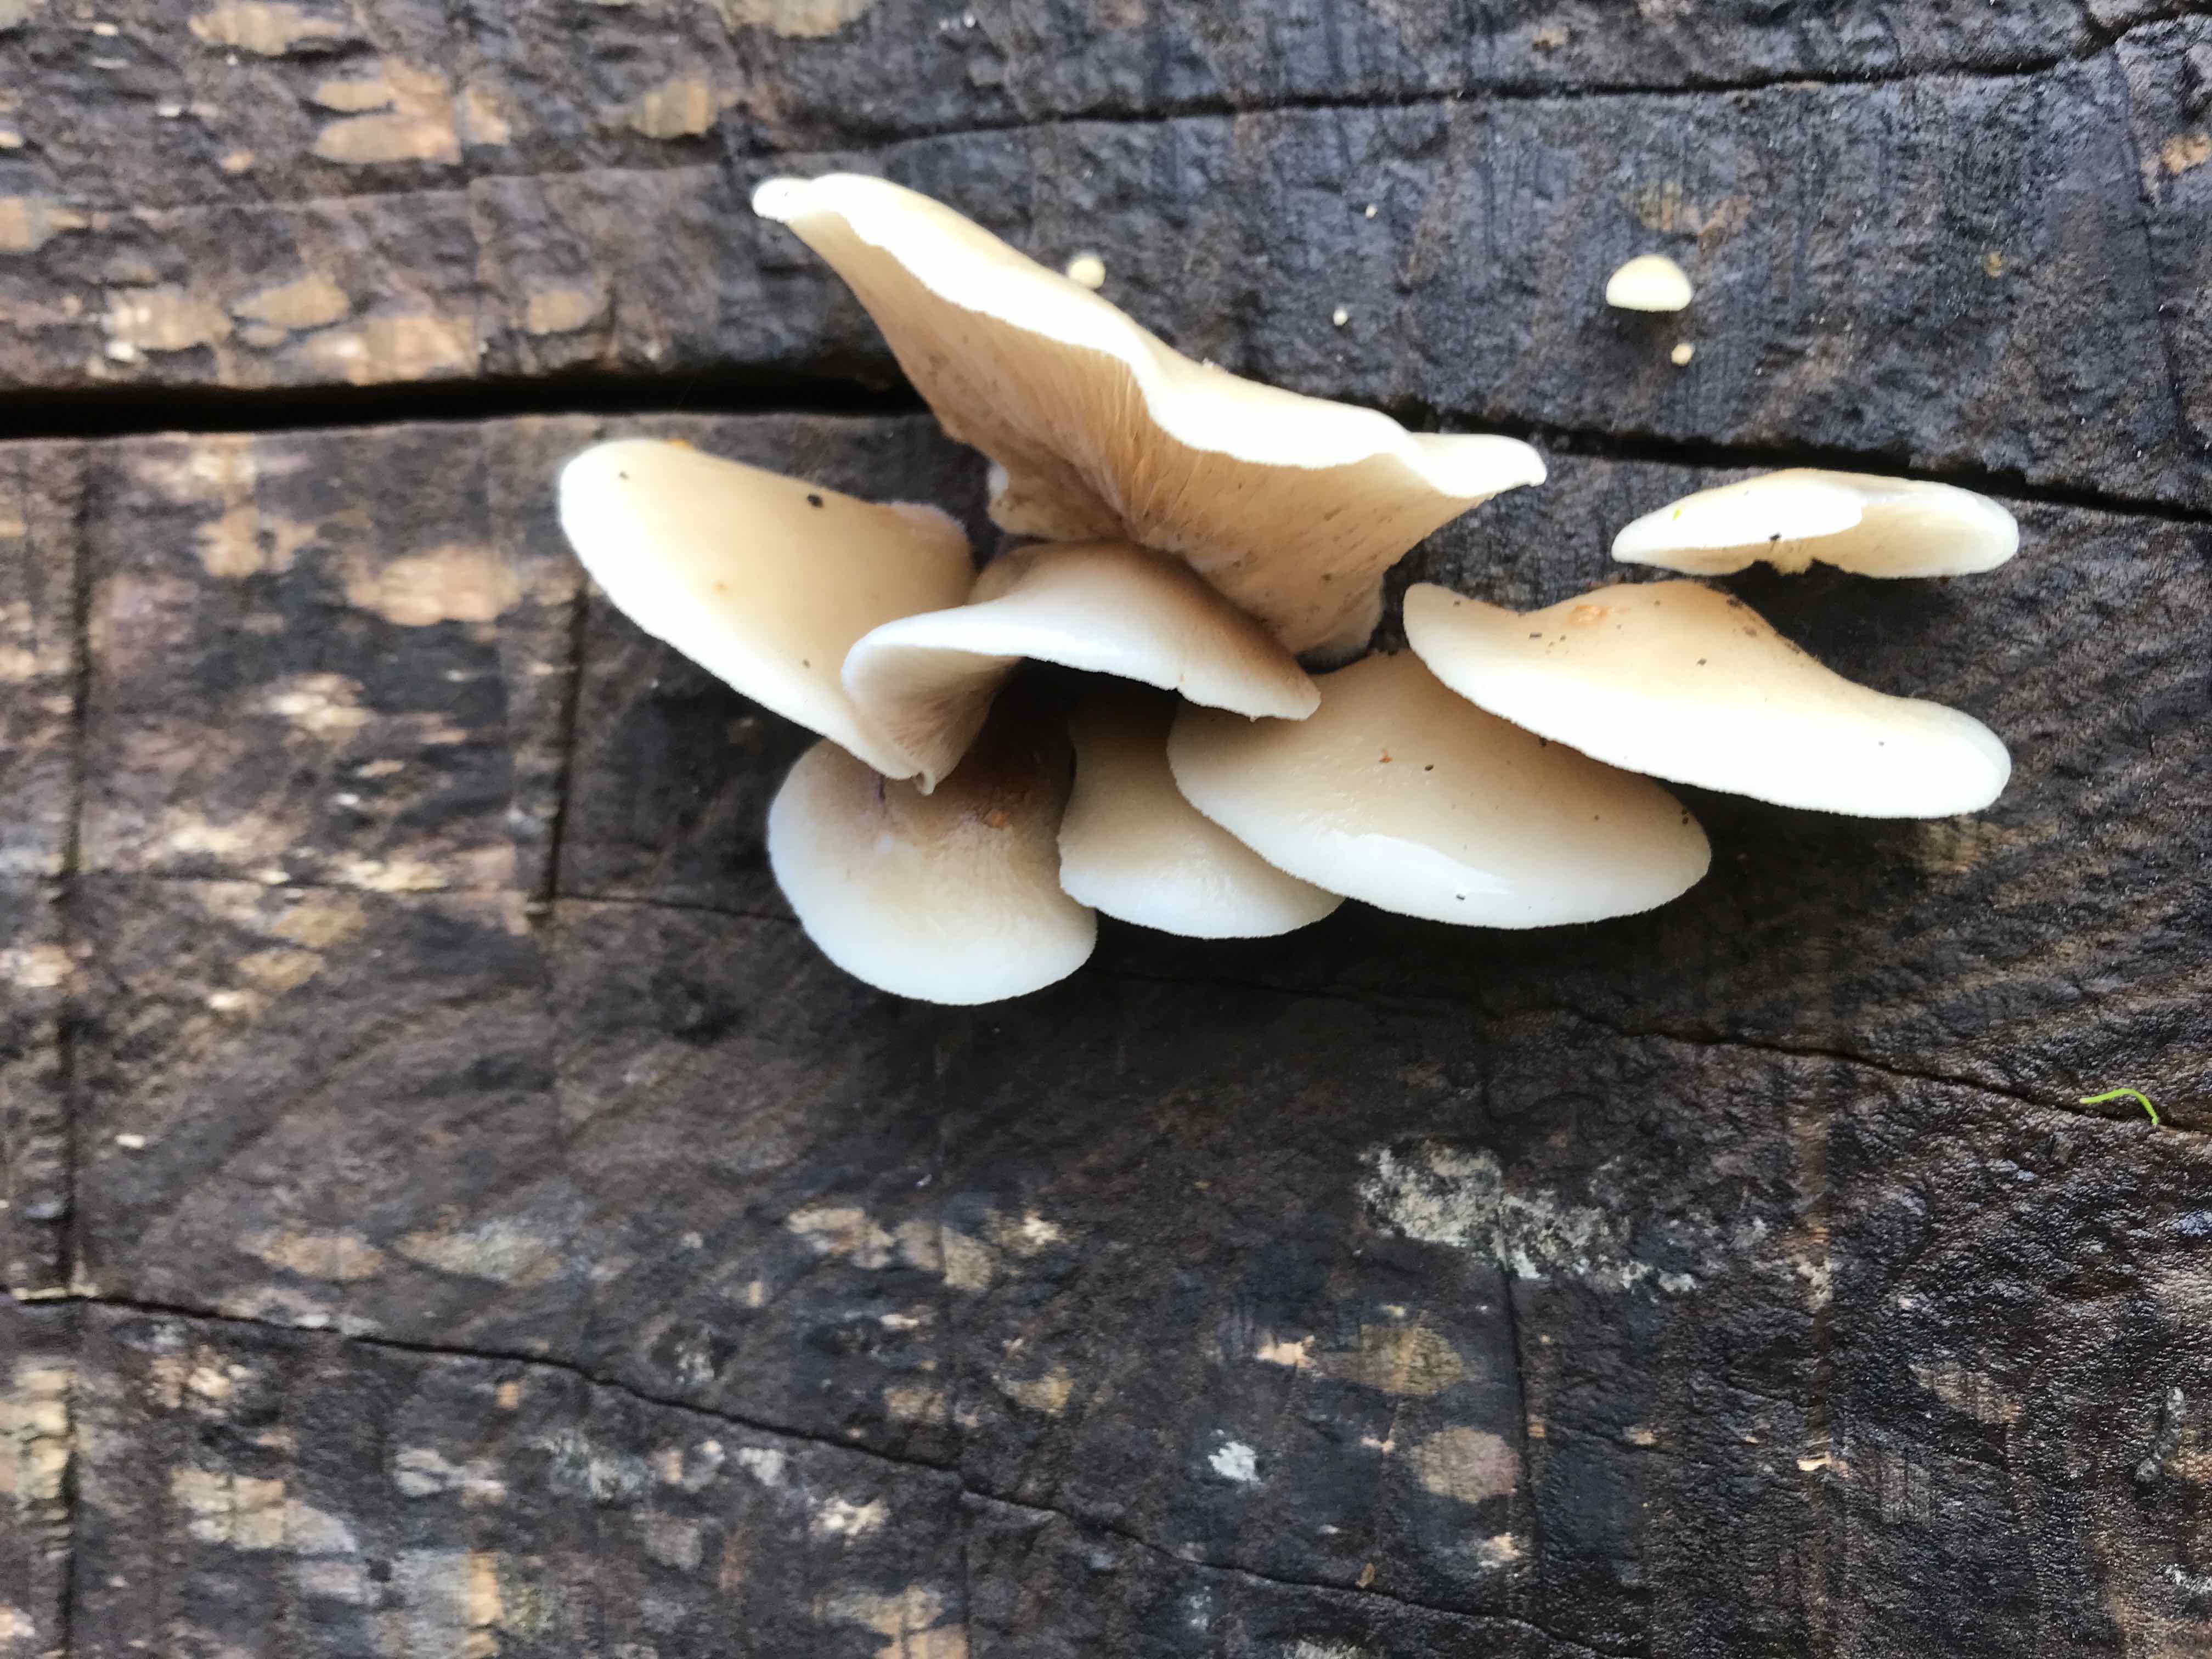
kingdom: Fungi
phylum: Basidiomycota
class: Agaricomycetes
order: Agaricales
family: Crepidotaceae
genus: Crepidotus
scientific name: Crepidotus mollis
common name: blød muslingesvamp
